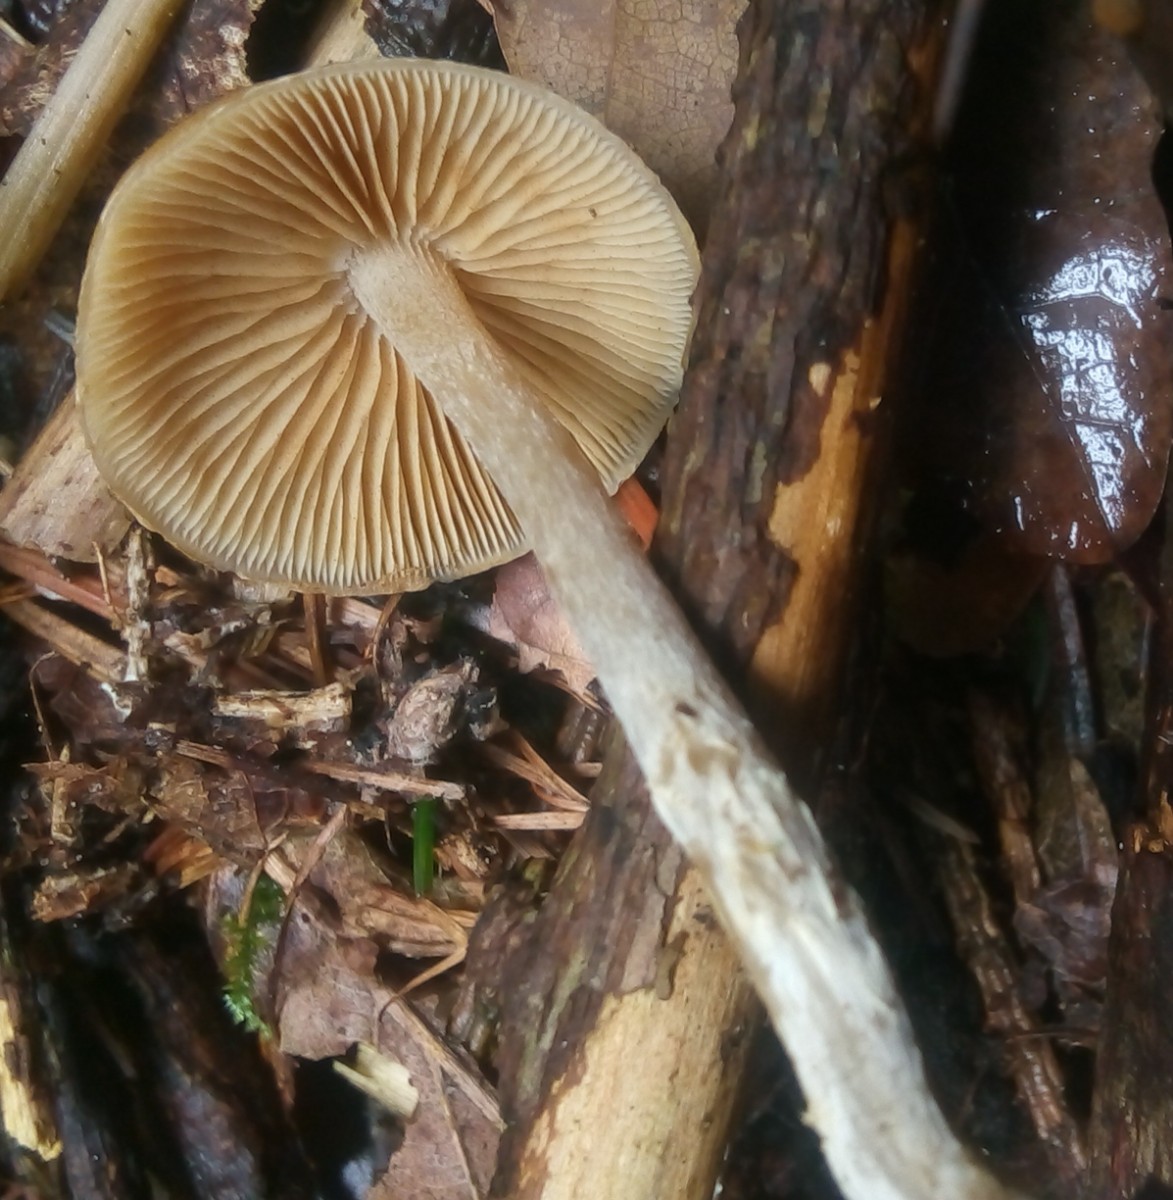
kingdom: Fungi
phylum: Basidiomycota
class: Agaricomycetes
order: Agaricales
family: Hymenogastraceae
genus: Galerina
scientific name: Galerina sideroides
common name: træflis-hjelmhat
